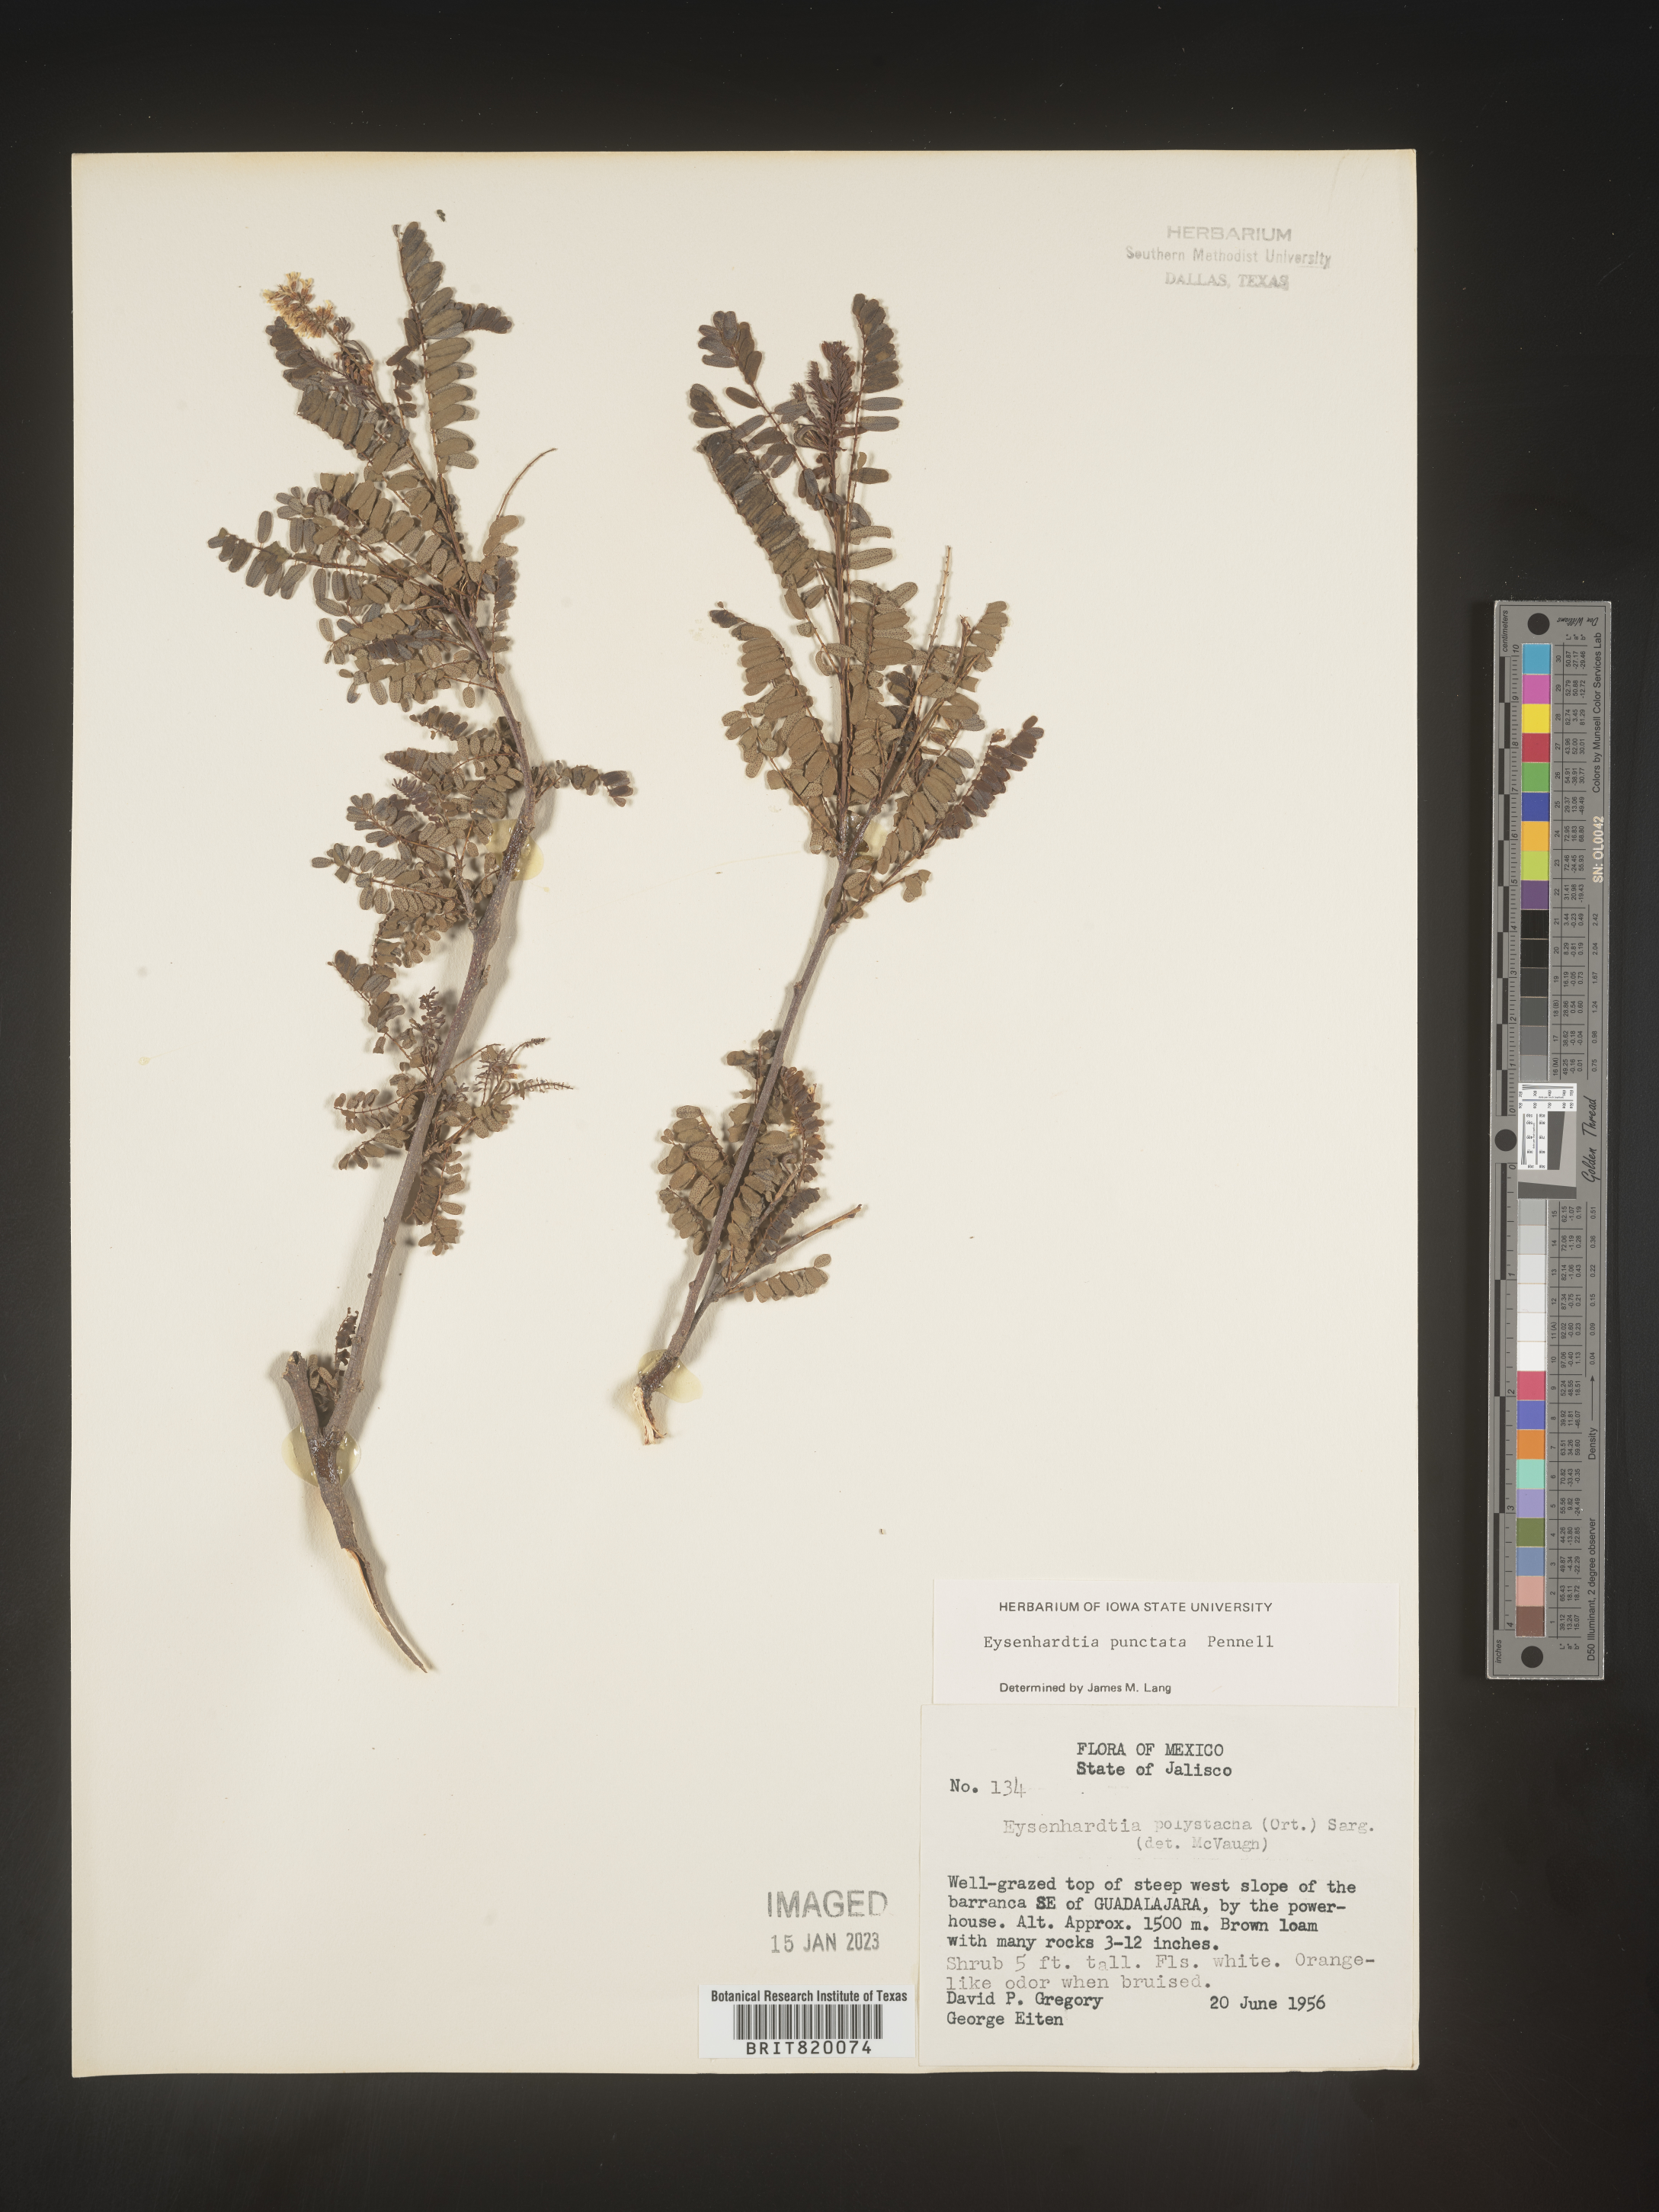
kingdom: Plantae
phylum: Tracheophyta
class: Magnoliopsida
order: Fabales
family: Fabaceae
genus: Eysenhardtia
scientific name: Eysenhardtia
